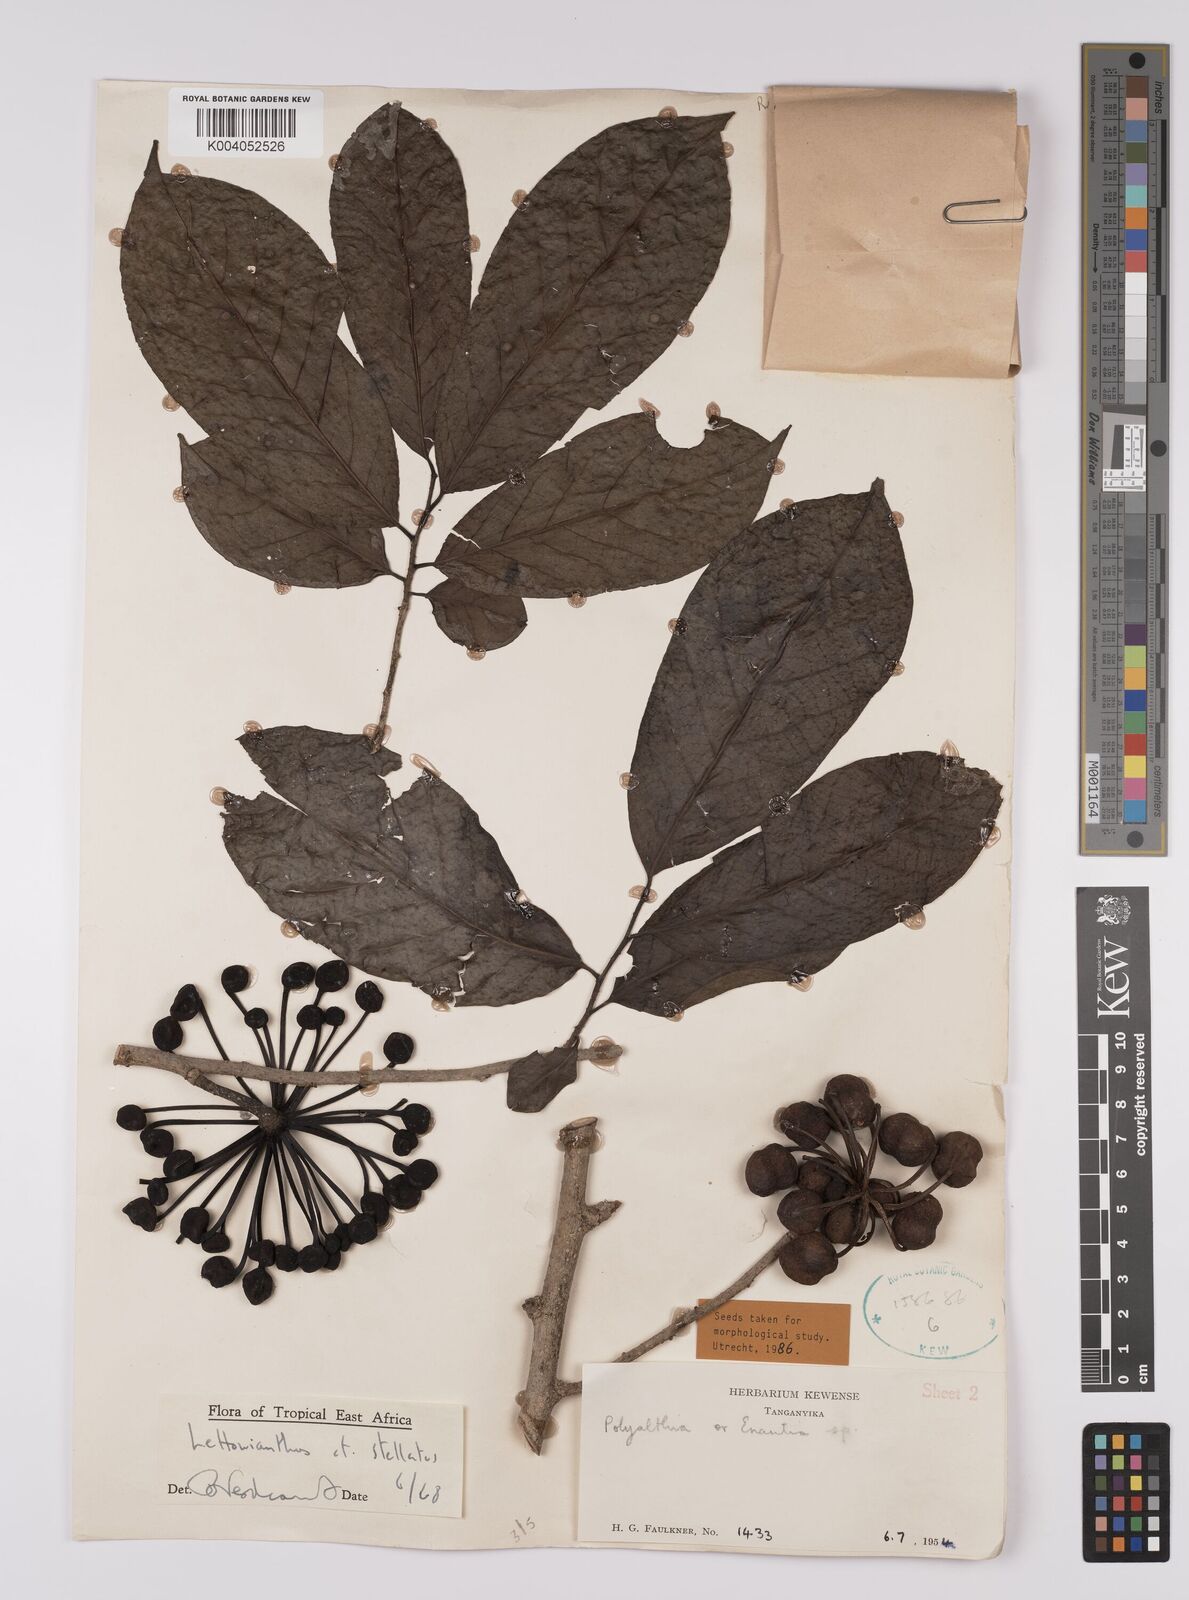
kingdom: Plantae
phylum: Tracheophyta
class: Magnoliopsida
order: Magnoliales
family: Annonaceae
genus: Lettowianthus
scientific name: Lettowianthus stellatus
